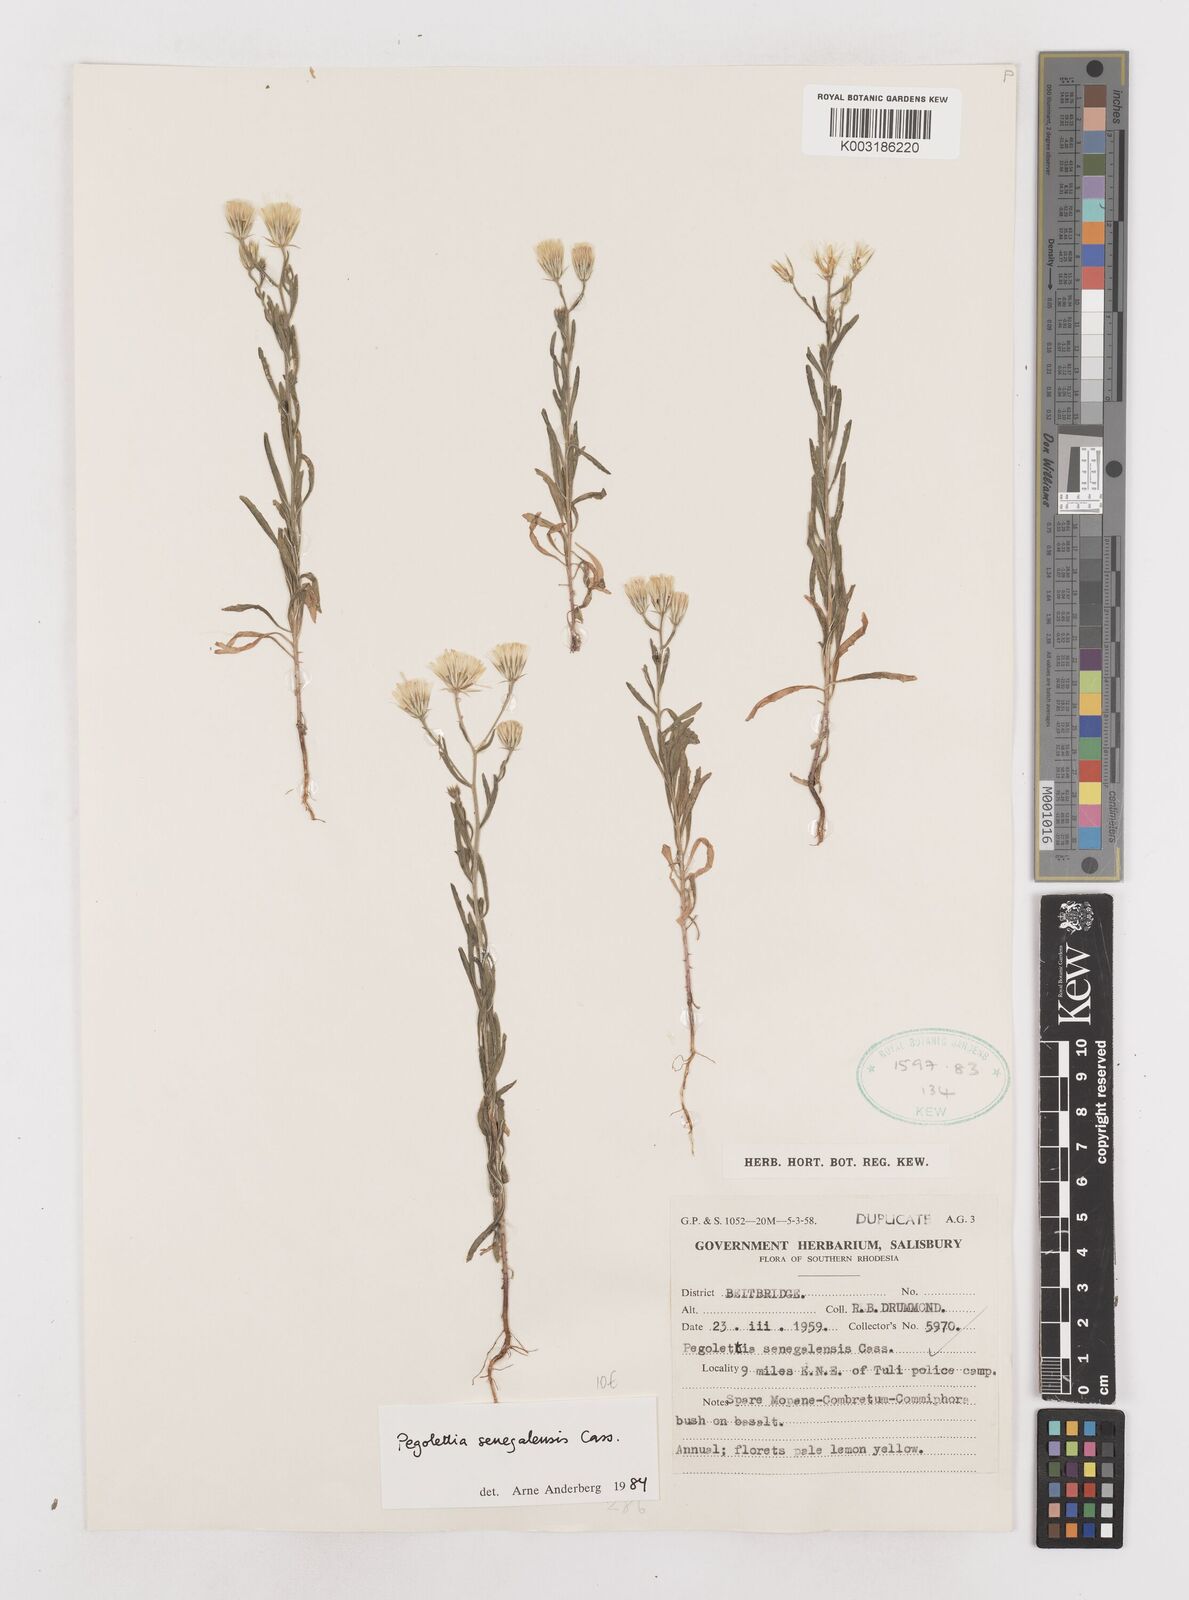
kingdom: Plantae
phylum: Tracheophyta
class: Magnoliopsida
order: Asterales
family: Asteraceae
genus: Pegolettia
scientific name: Pegolettia senegalensis
